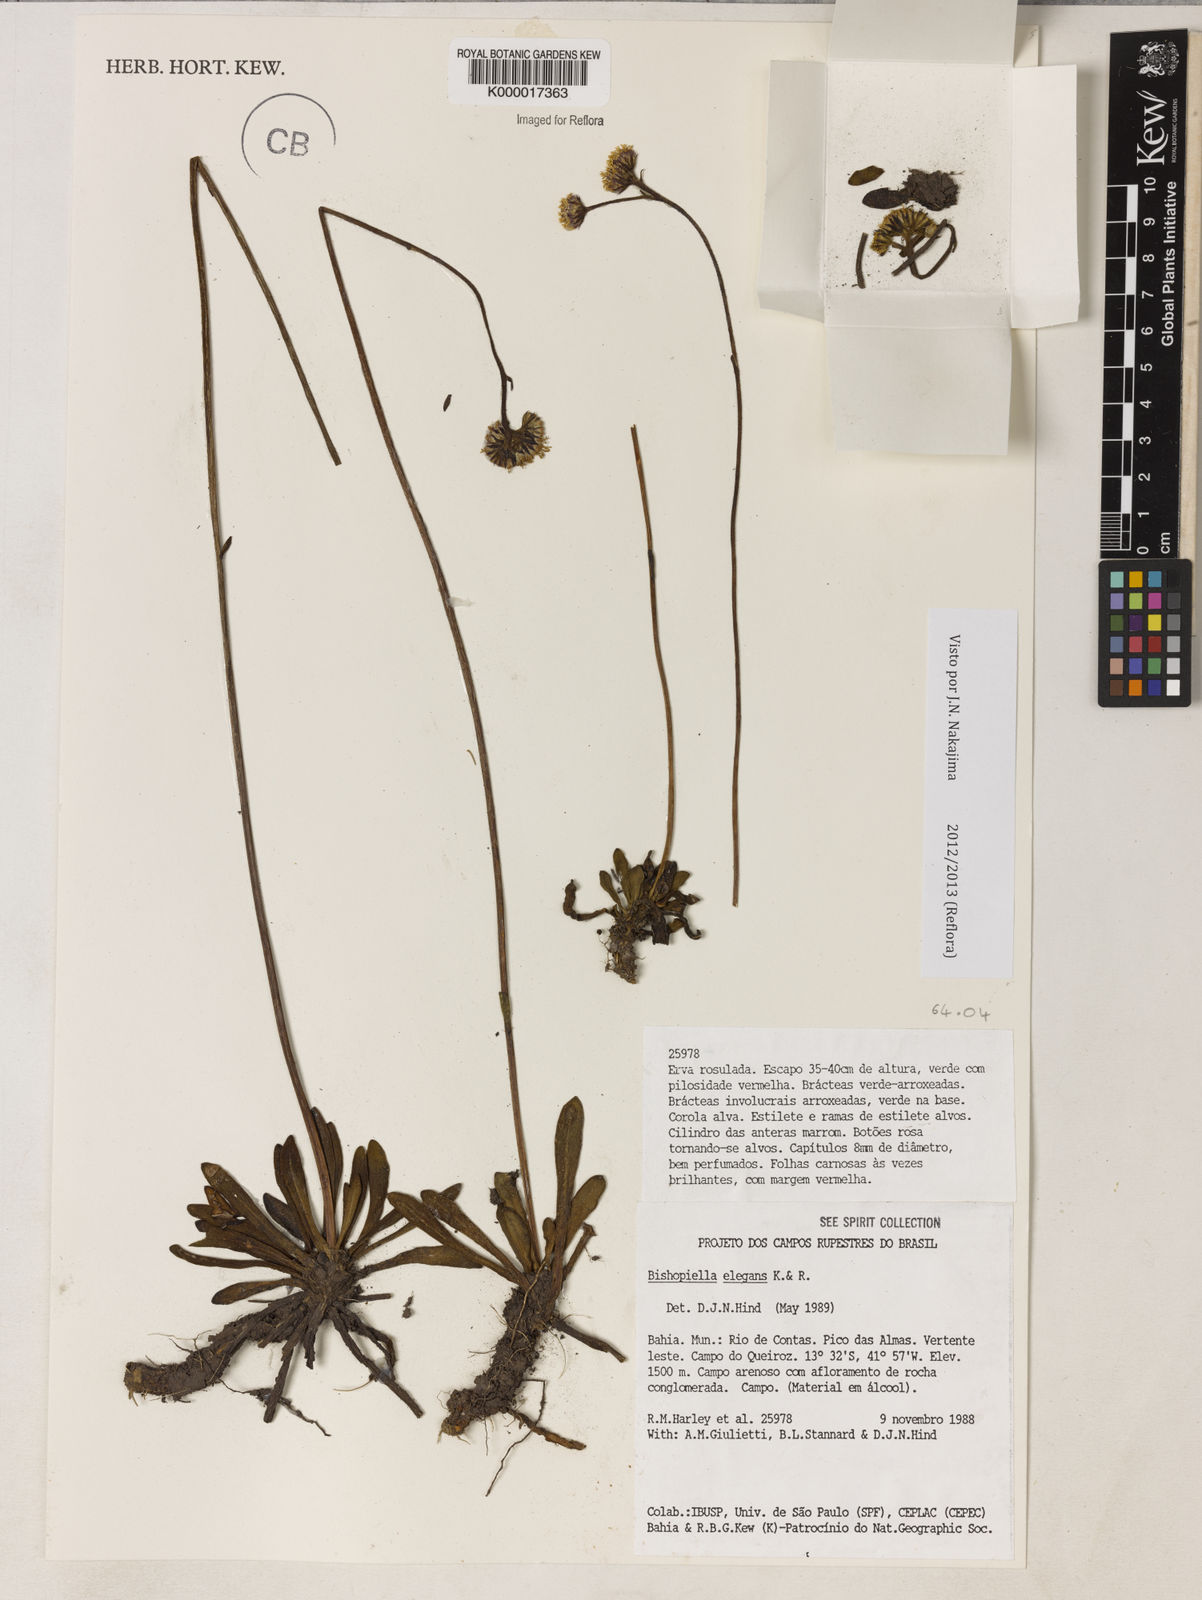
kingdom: Plantae
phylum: Tracheophyta
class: Magnoliopsida
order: Asterales
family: Asteraceae
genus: Bishopiella
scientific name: Bishopiella elegans
